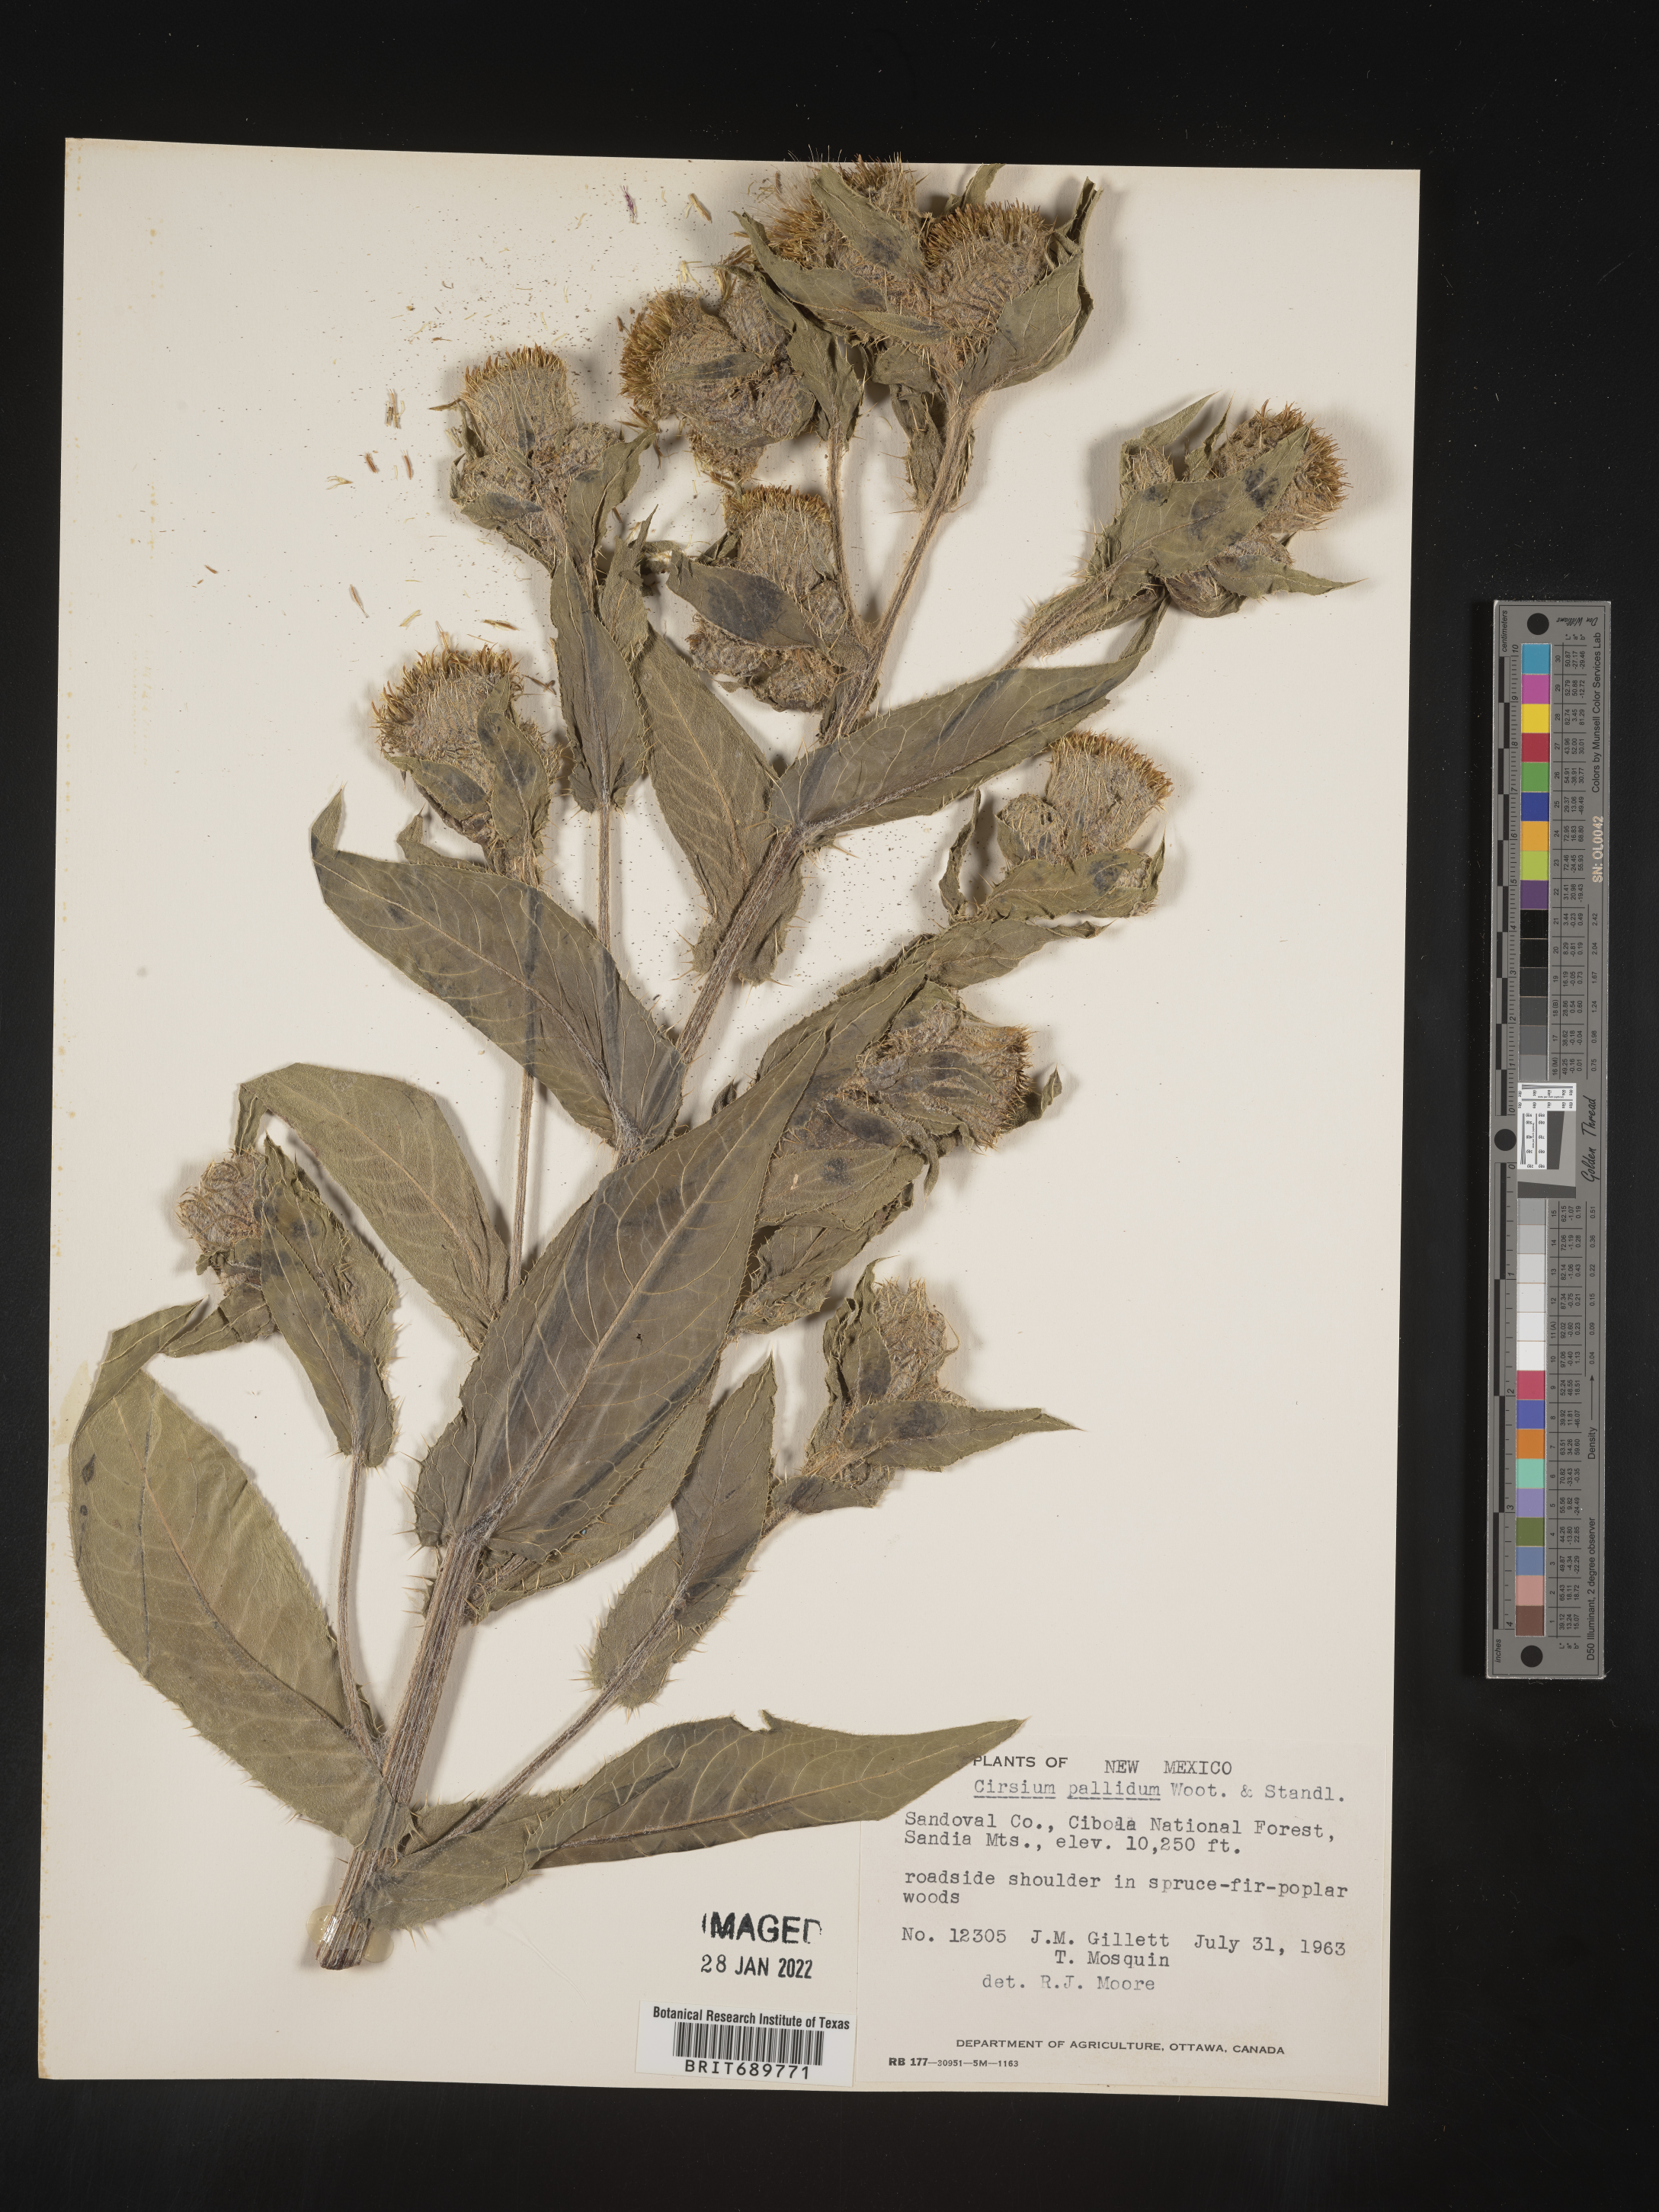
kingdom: Plantae
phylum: Tracheophyta
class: Magnoliopsida
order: Asterales
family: Asteraceae
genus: Cirsium
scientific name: Cirsium parryi
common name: Parry's thistle
